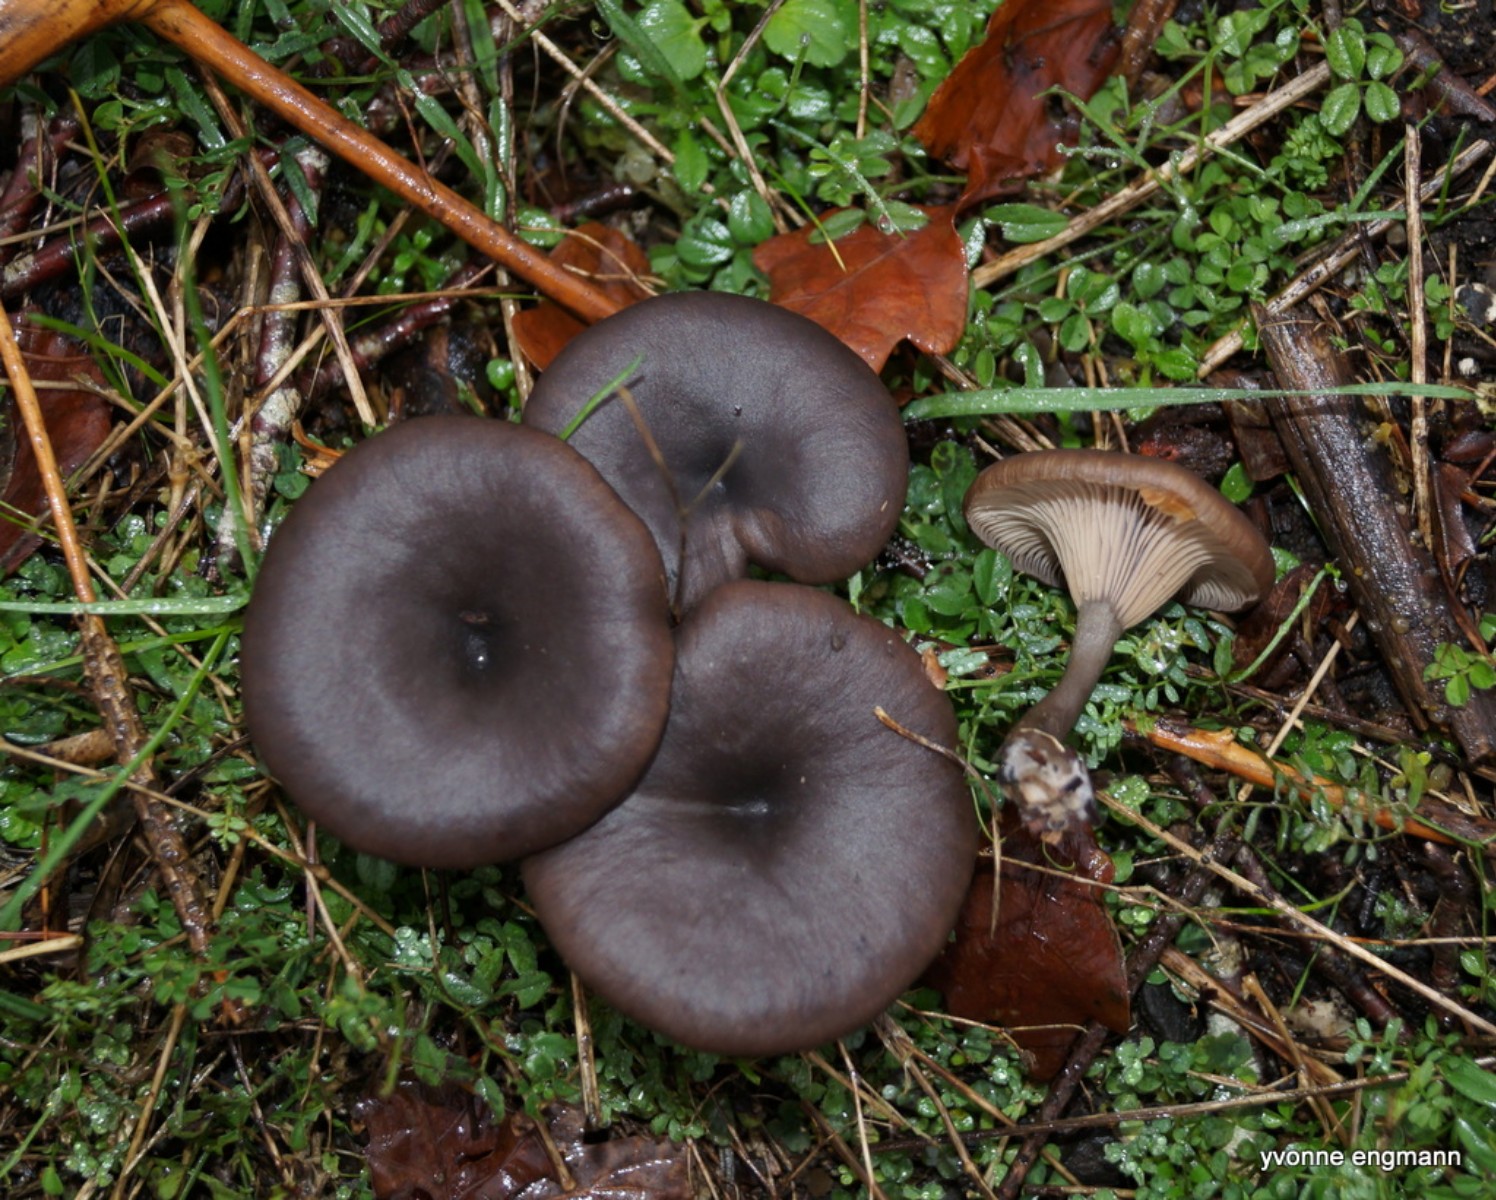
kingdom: Fungi
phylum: Basidiomycota
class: Agaricomycetes
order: Agaricales
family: Pseudoclitocybaceae
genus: Pseudoclitocybe
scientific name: Pseudoclitocybe cyathiformis
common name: almindelig bægertragthat
